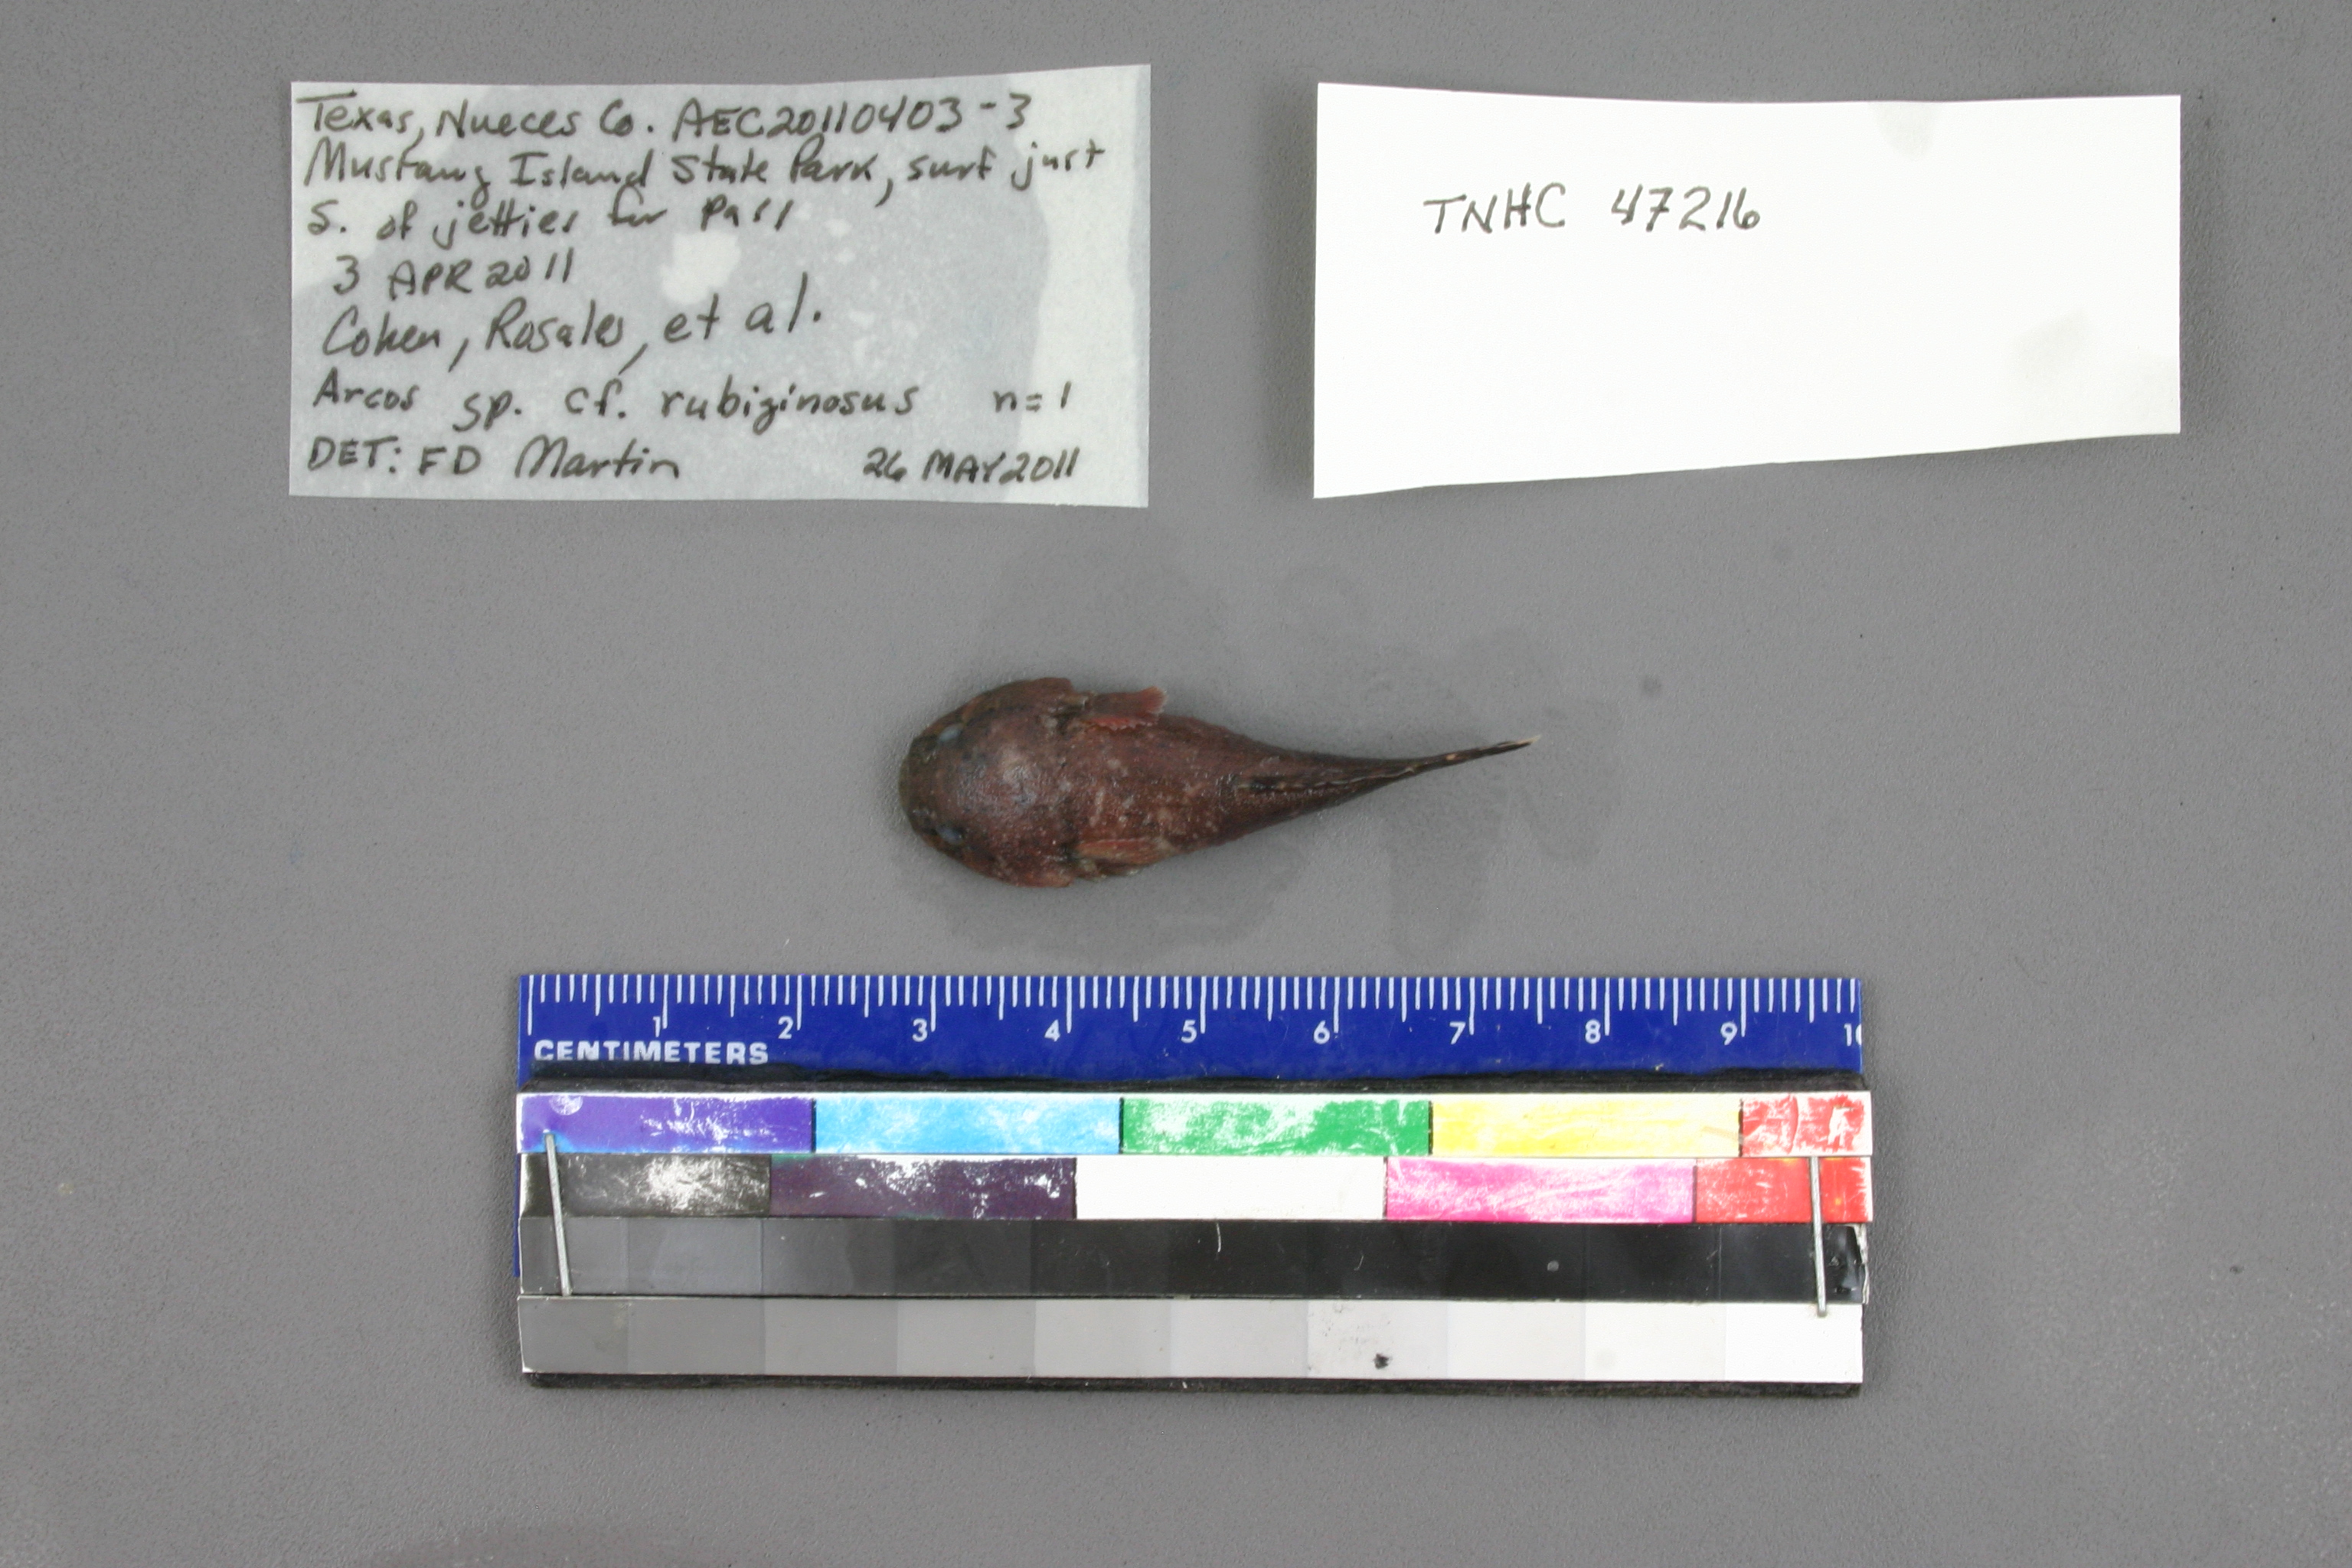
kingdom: Animalia
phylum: Chordata
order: Gobiesociformes
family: Gobiesocidae
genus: Gobiesox
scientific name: Gobiesox strumosus
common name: Skilletfish
